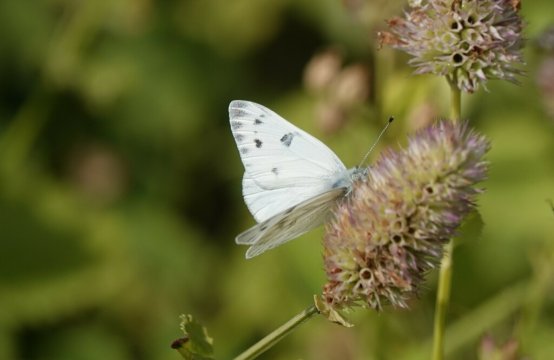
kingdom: Animalia
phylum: Arthropoda
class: Insecta
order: Lepidoptera
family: Pieridae
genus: Pontia
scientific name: Pontia
